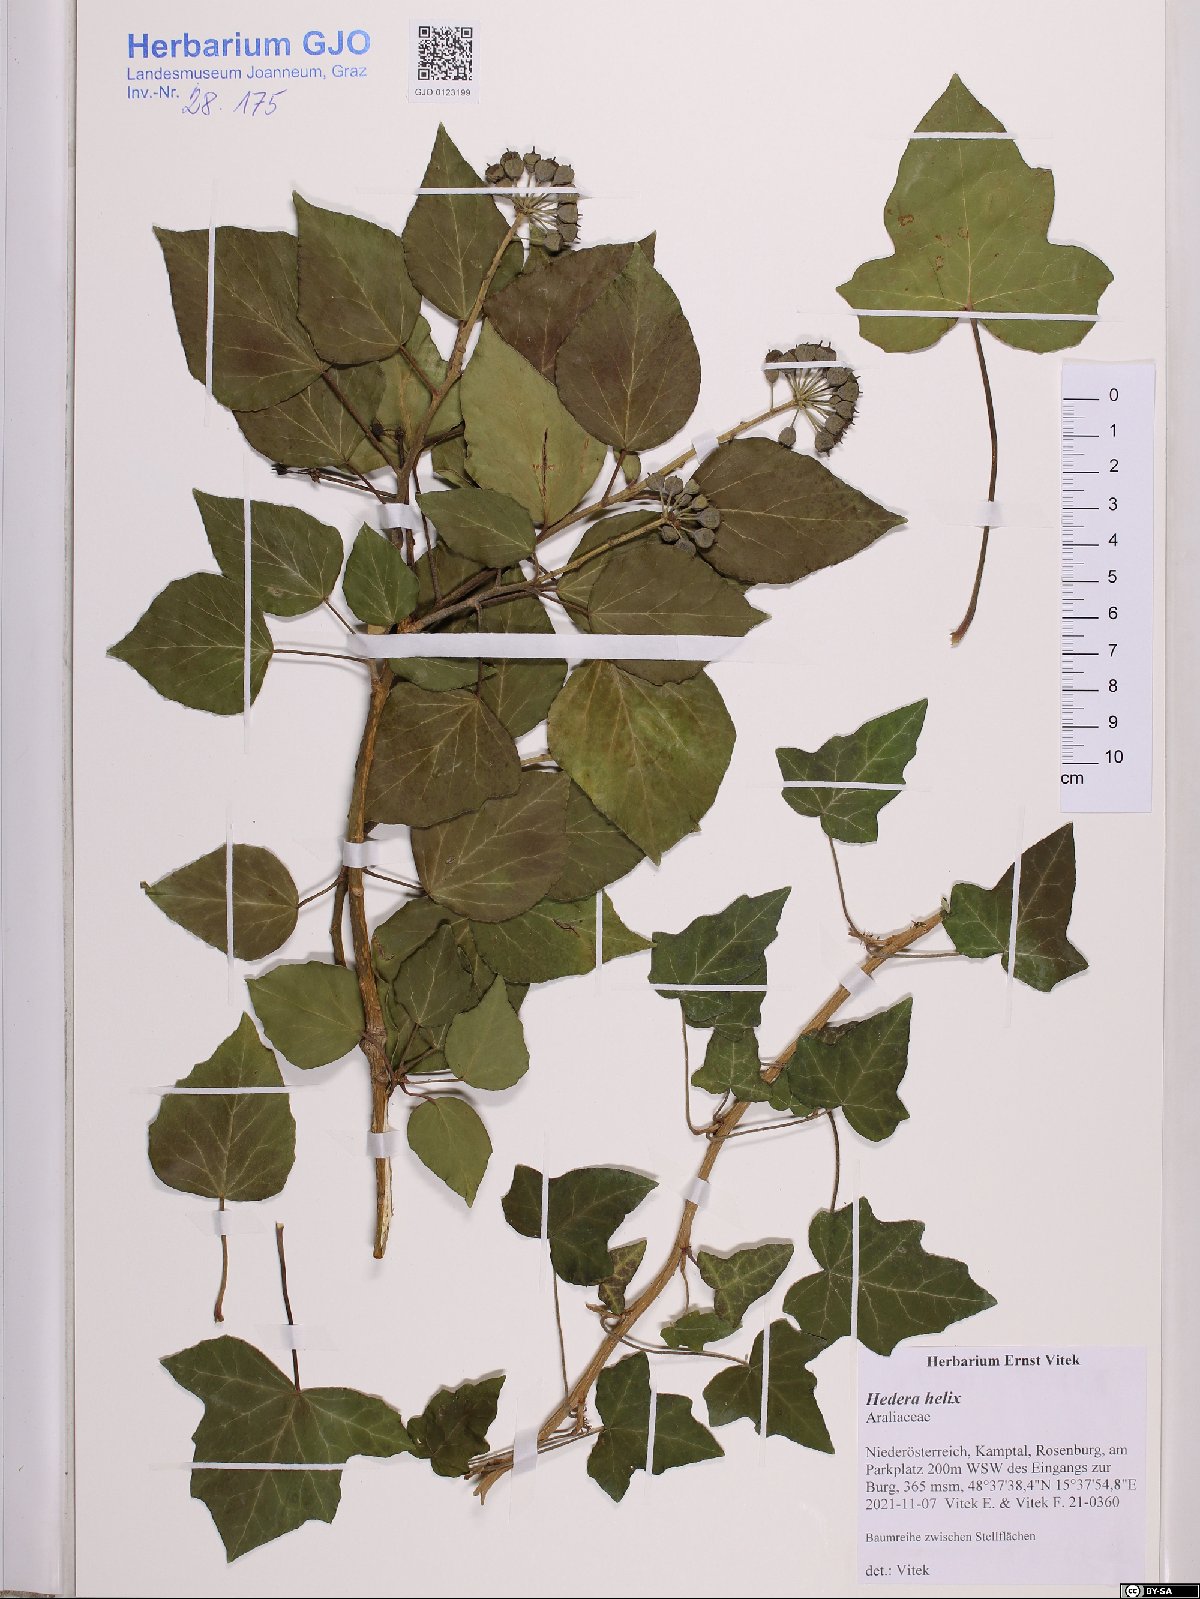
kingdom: Plantae
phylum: Tracheophyta
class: Magnoliopsida
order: Apiales
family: Araliaceae
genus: Hedera
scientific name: Hedera helix
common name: Ivy
